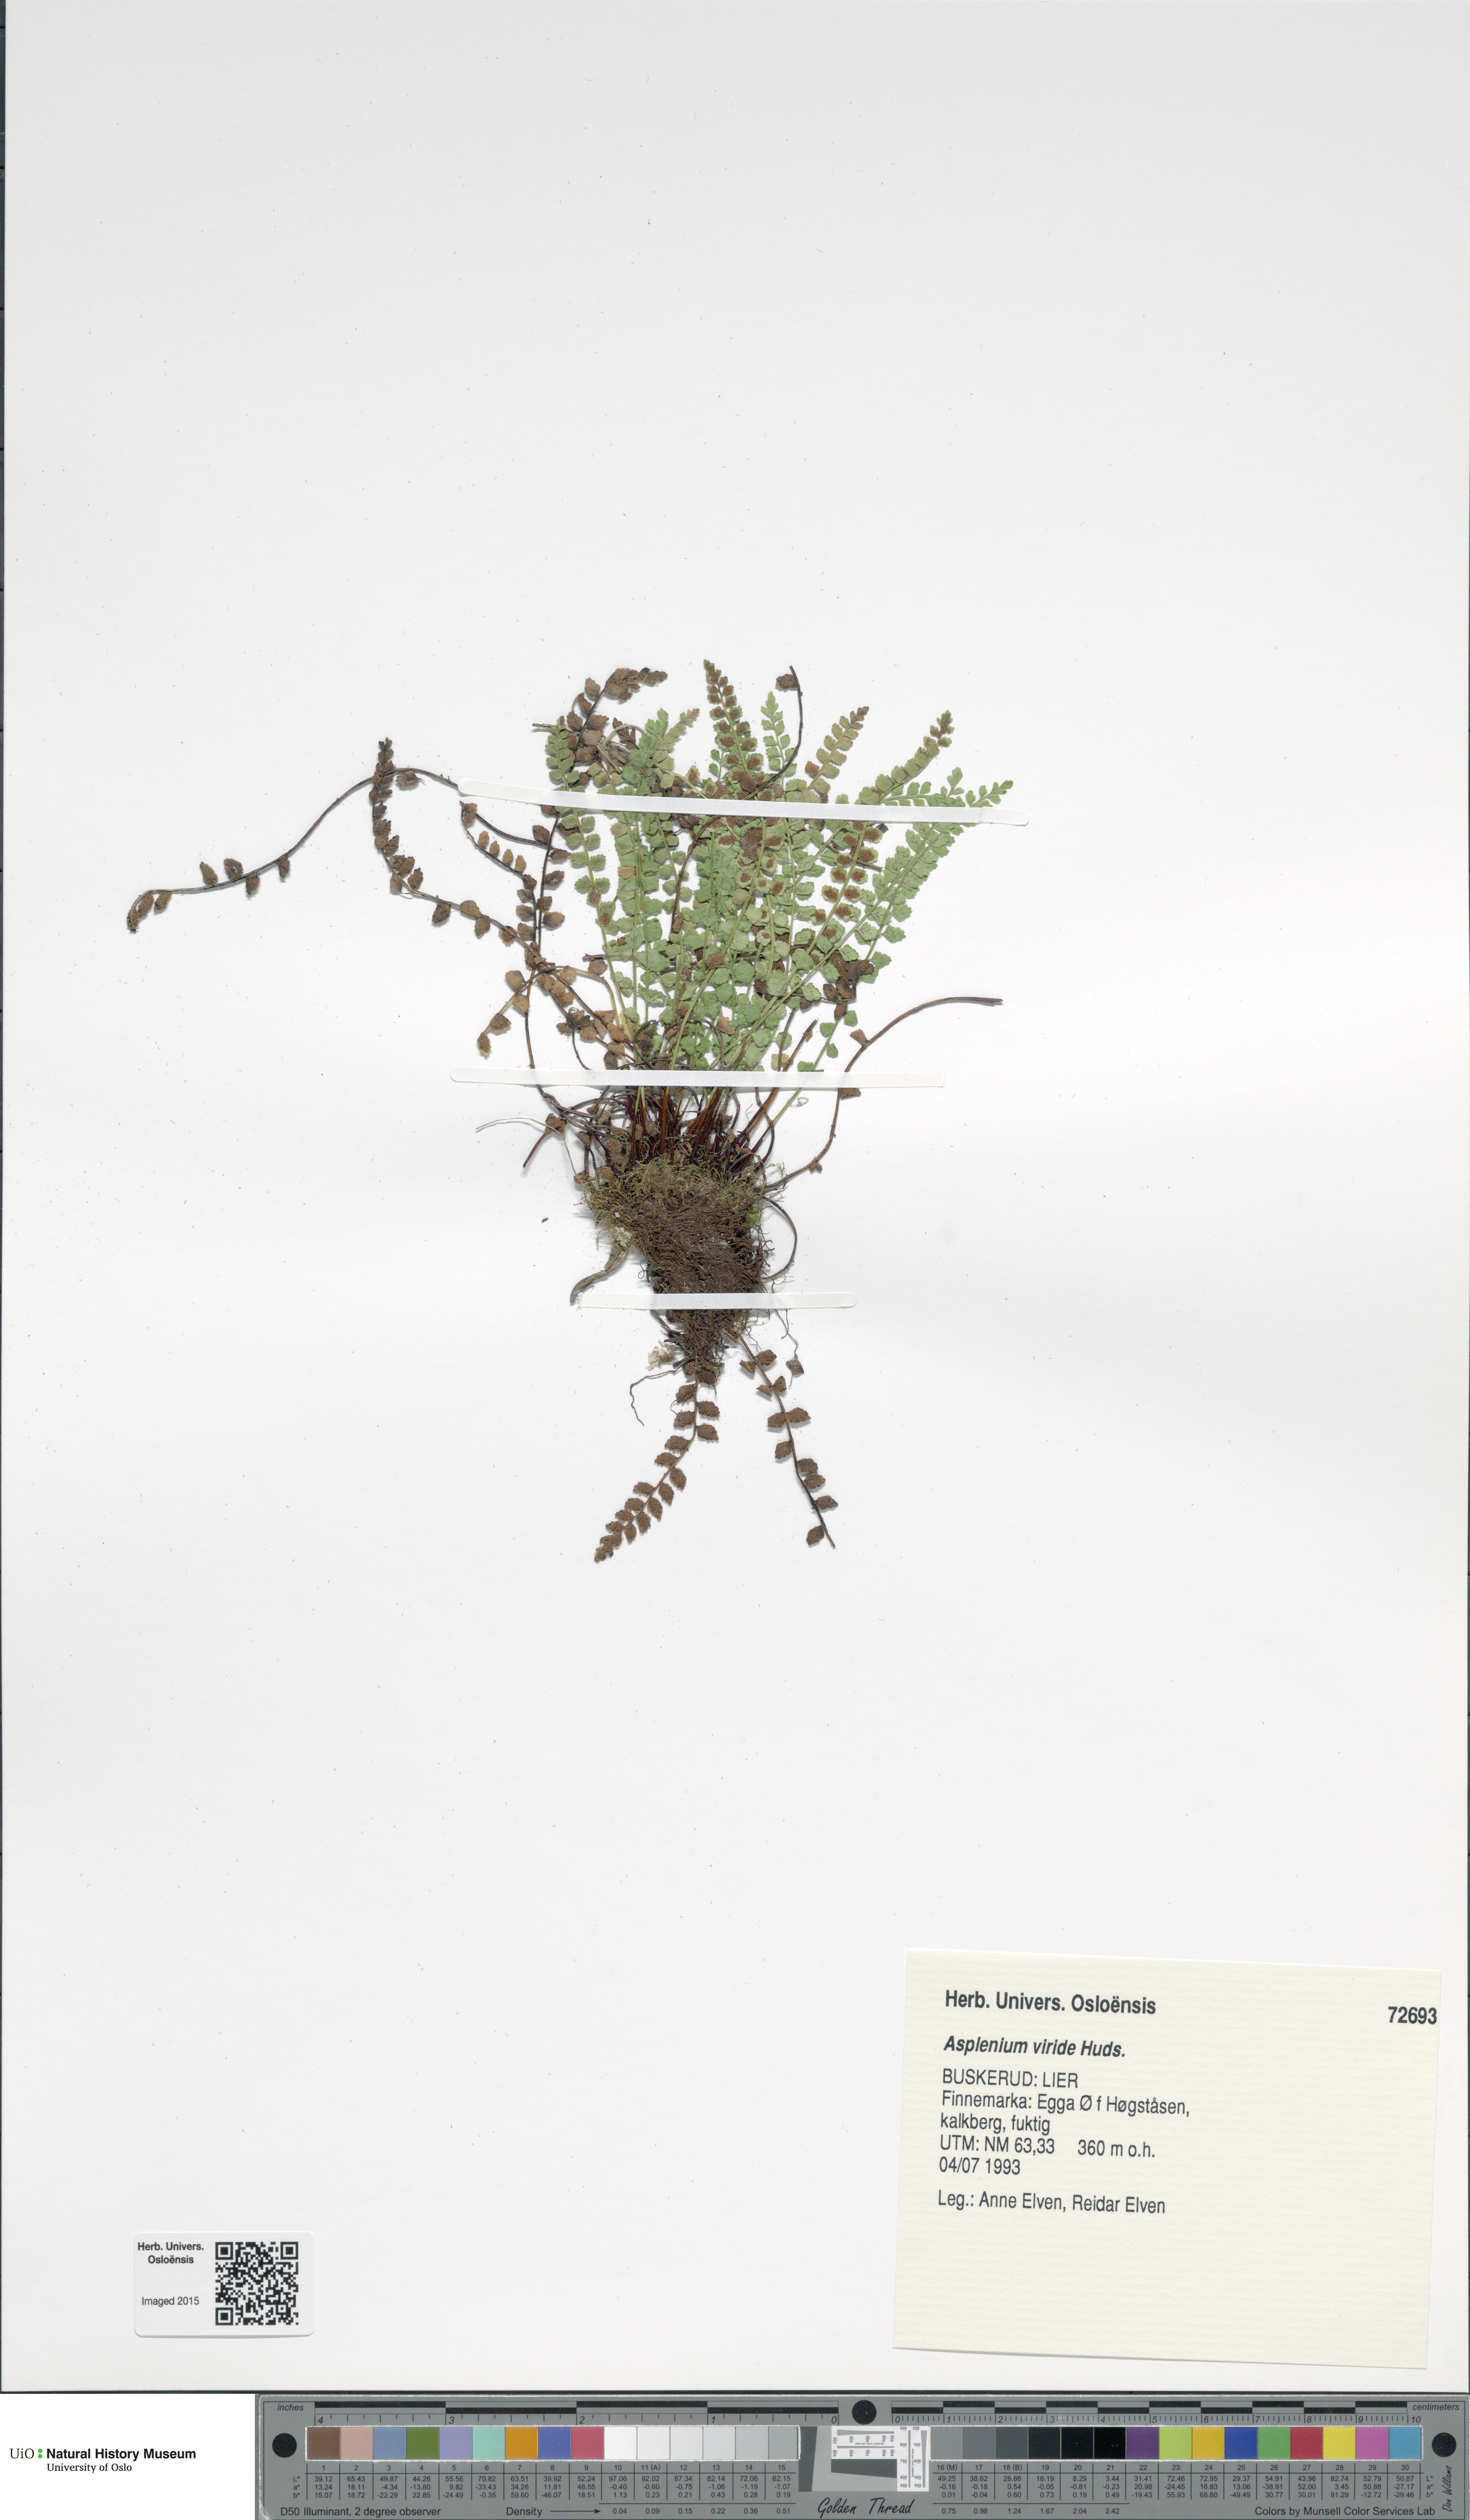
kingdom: Plantae
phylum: Tracheophyta
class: Polypodiopsida
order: Polypodiales
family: Aspleniaceae
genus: Asplenium
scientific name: Asplenium viride
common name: Green spleenwort
